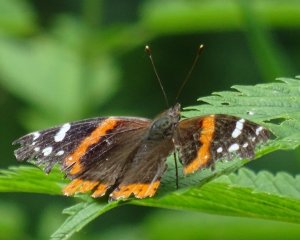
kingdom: Animalia
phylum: Arthropoda
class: Insecta
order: Lepidoptera
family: Nymphalidae
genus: Vanessa
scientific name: Vanessa atalanta
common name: Red Admiral
